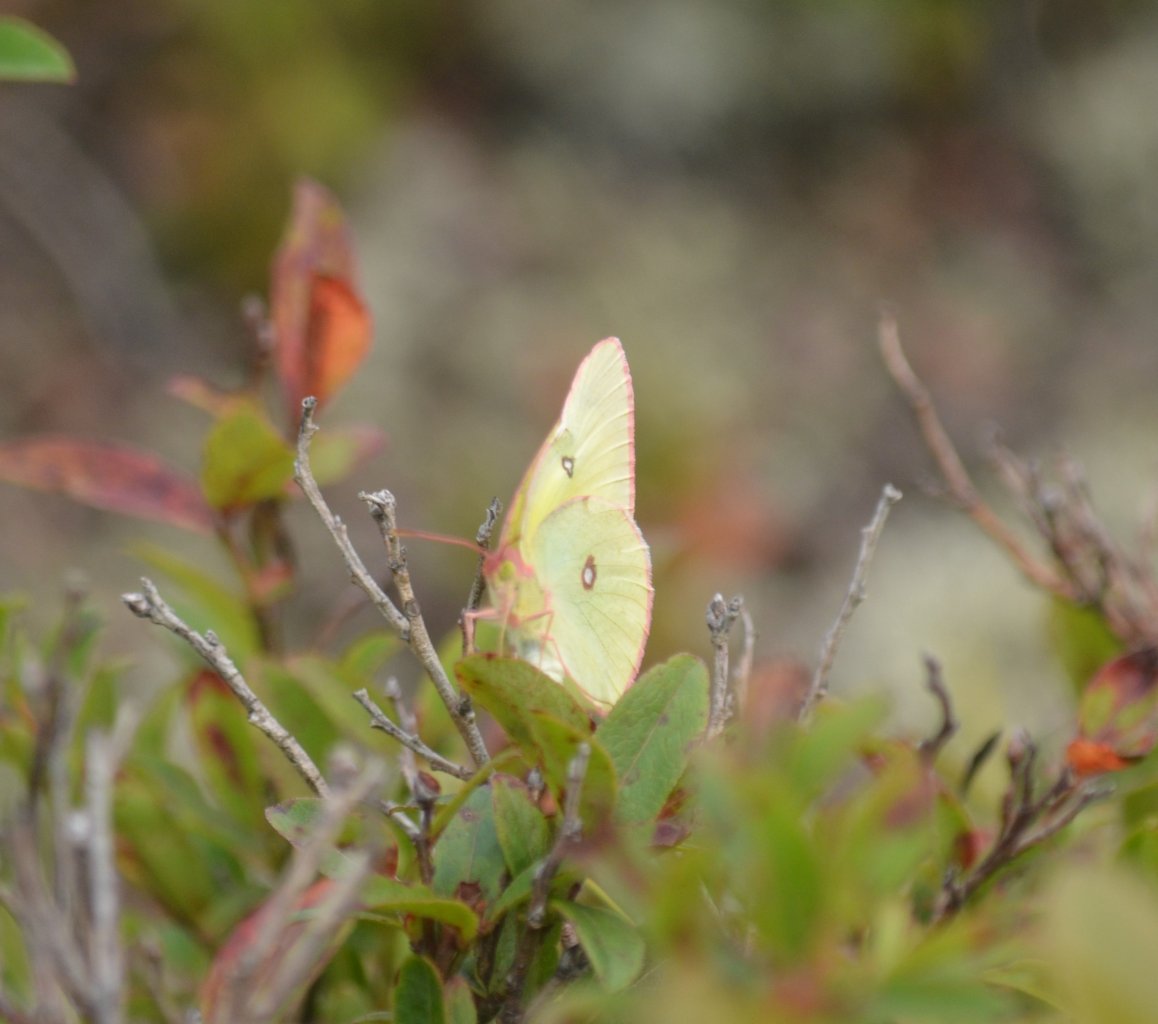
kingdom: Animalia
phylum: Arthropoda
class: Insecta
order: Lepidoptera
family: Pieridae
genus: Colias
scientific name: Colias interior
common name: Pink-edged Sulphur
